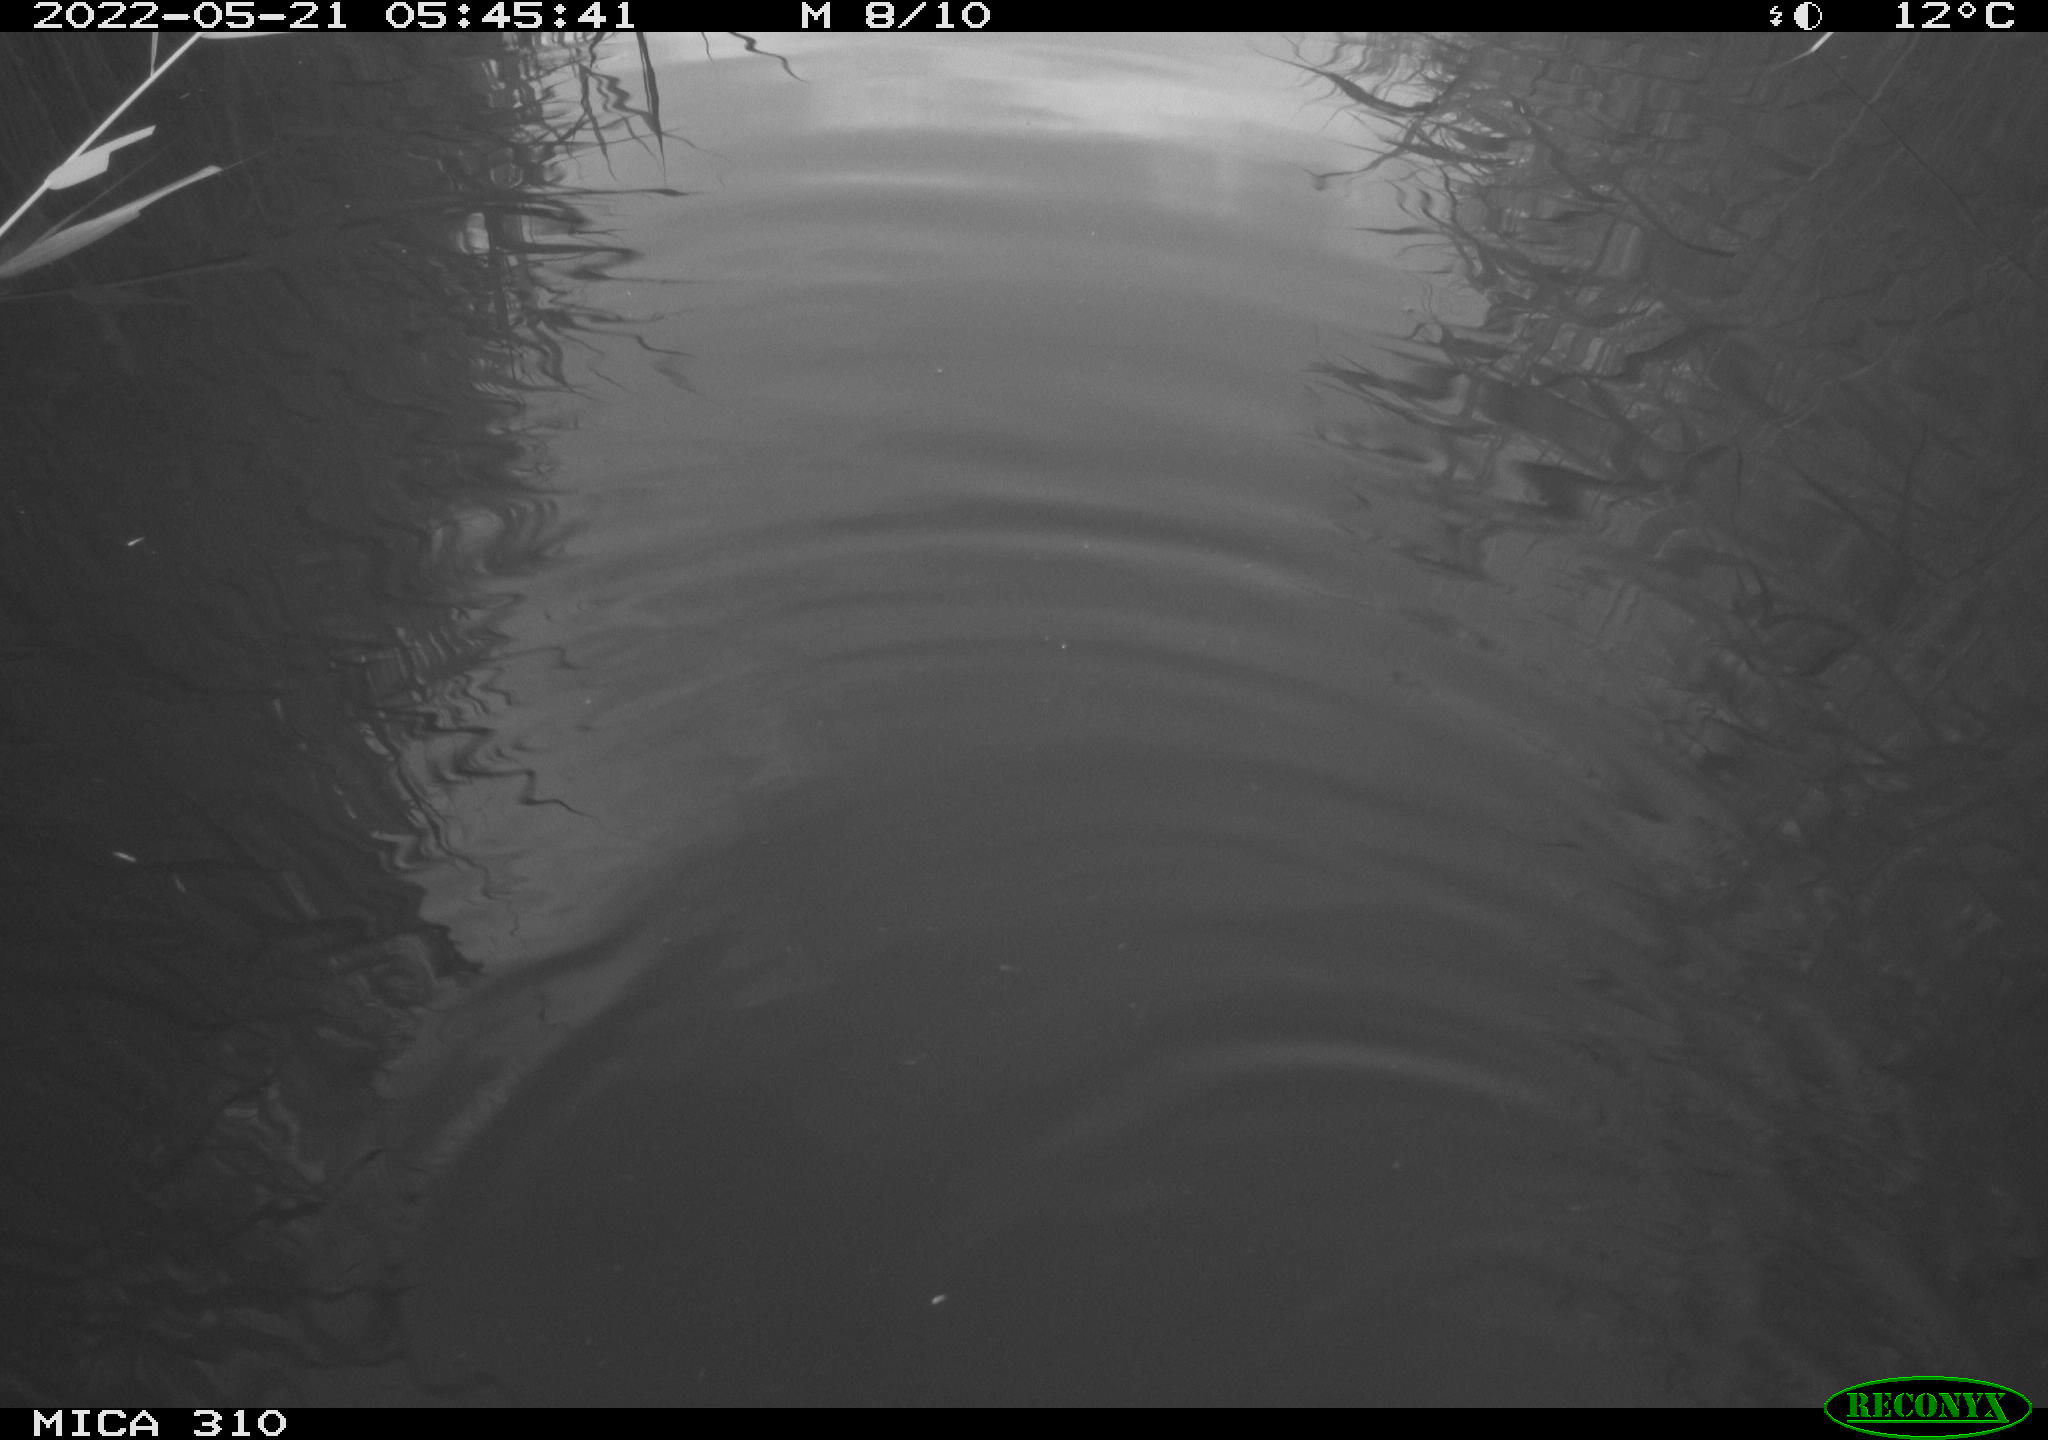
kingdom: Animalia
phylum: Chordata
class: Aves
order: Gruiformes
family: Rallidae
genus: Gallinula
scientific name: Gallinula chloropus
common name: Common moorhen
